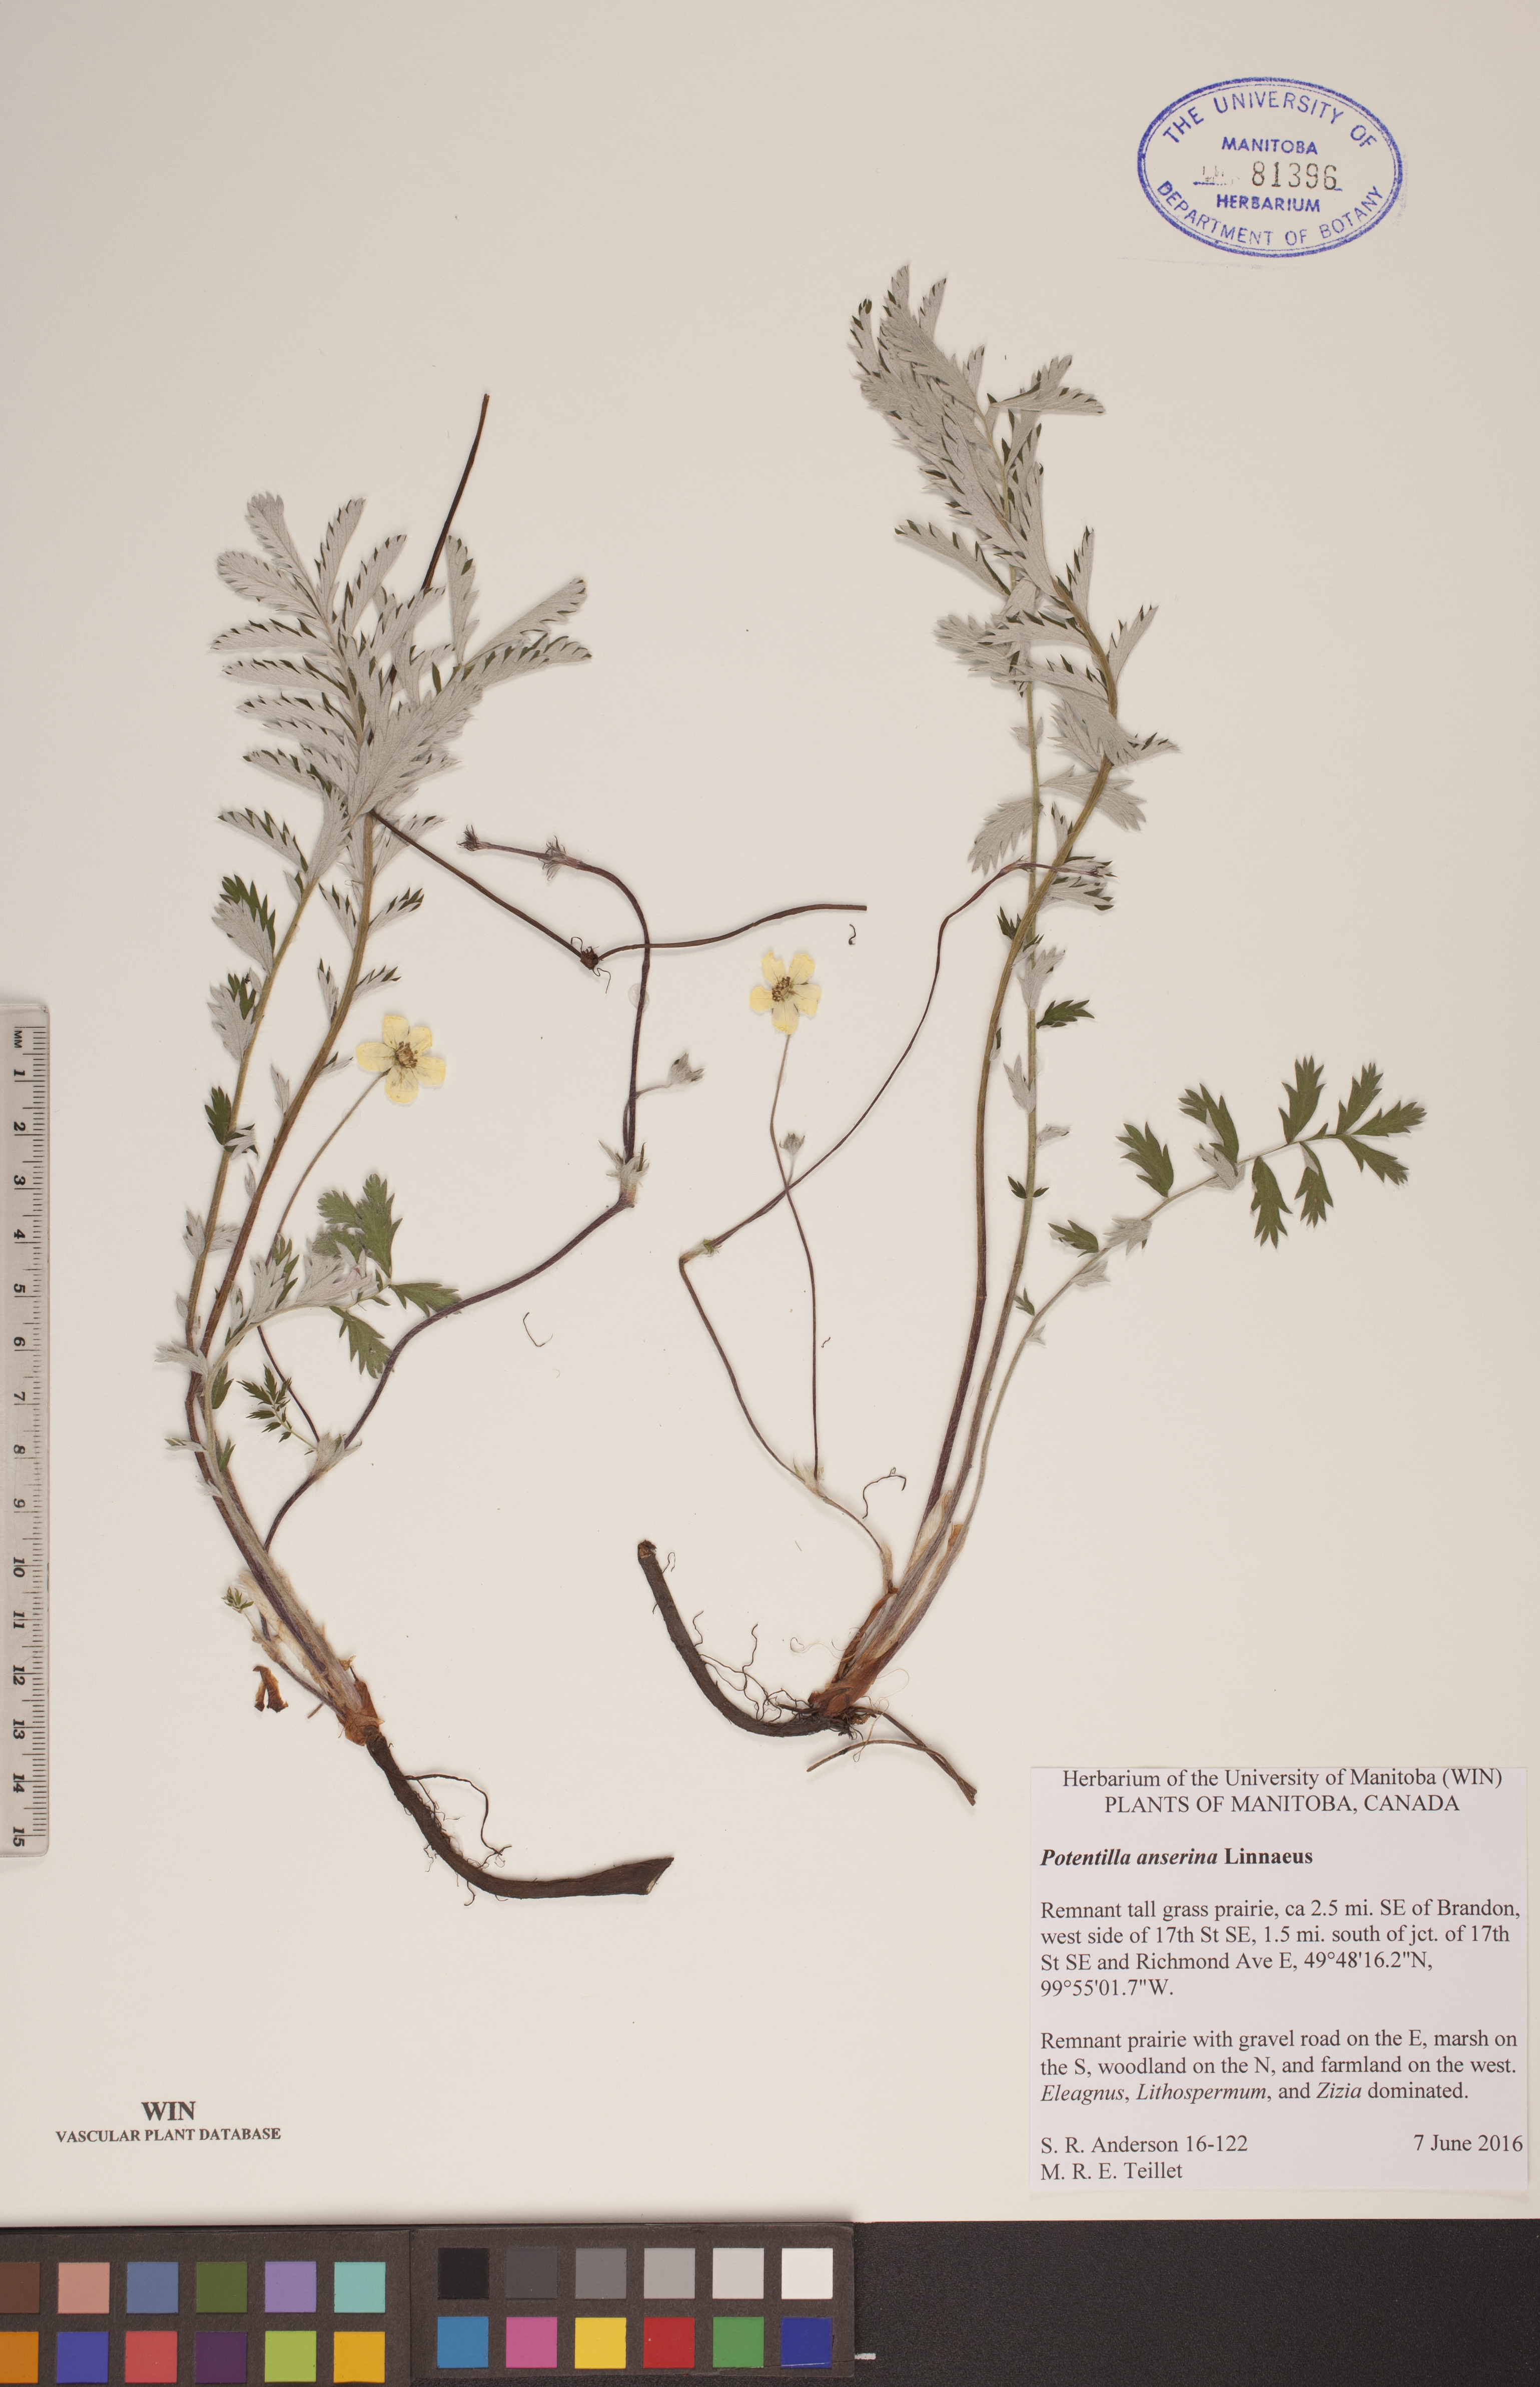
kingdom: Plantae
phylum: Tracheophyta
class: Magnoliopsida
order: Rosales
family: Rosaceae
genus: Argentina
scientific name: Argentina anserina
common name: Common silverweed
